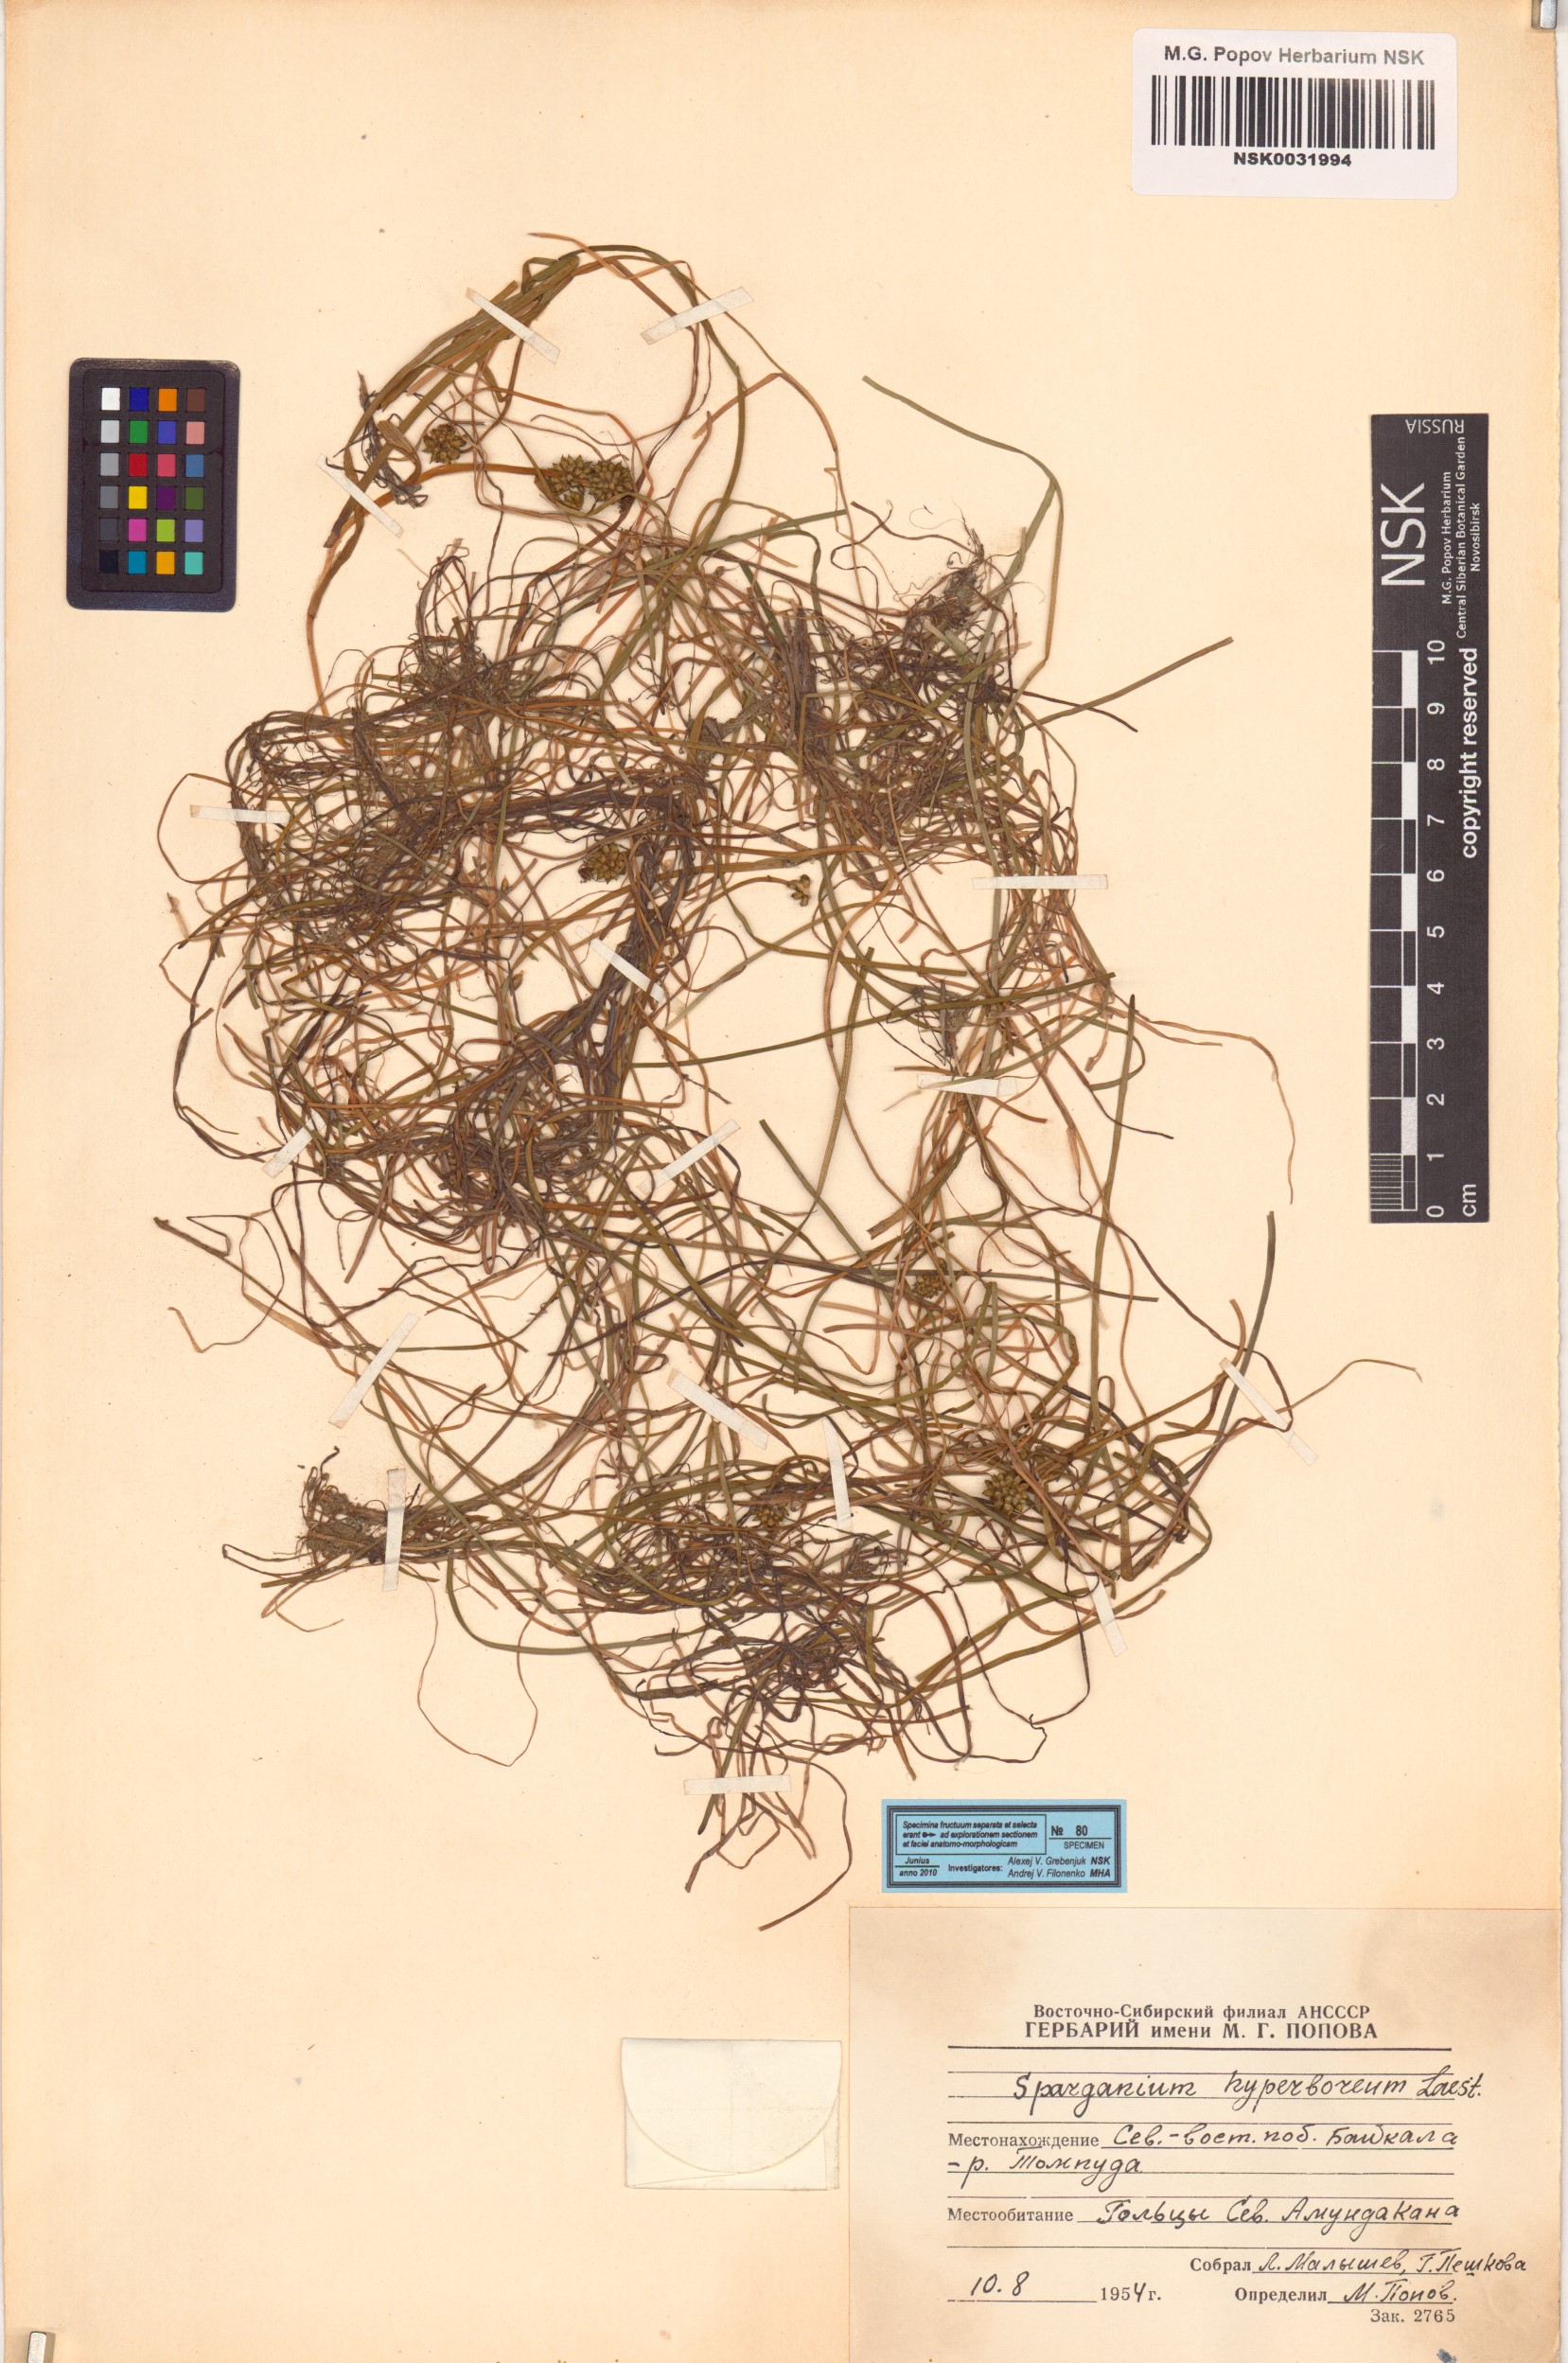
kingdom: Plantae
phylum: Tracheophyta
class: Liliopsida
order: Poales
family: Typhaceae
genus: Sparganium
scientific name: Sparganium hyperboreum
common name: Arctic burreed
